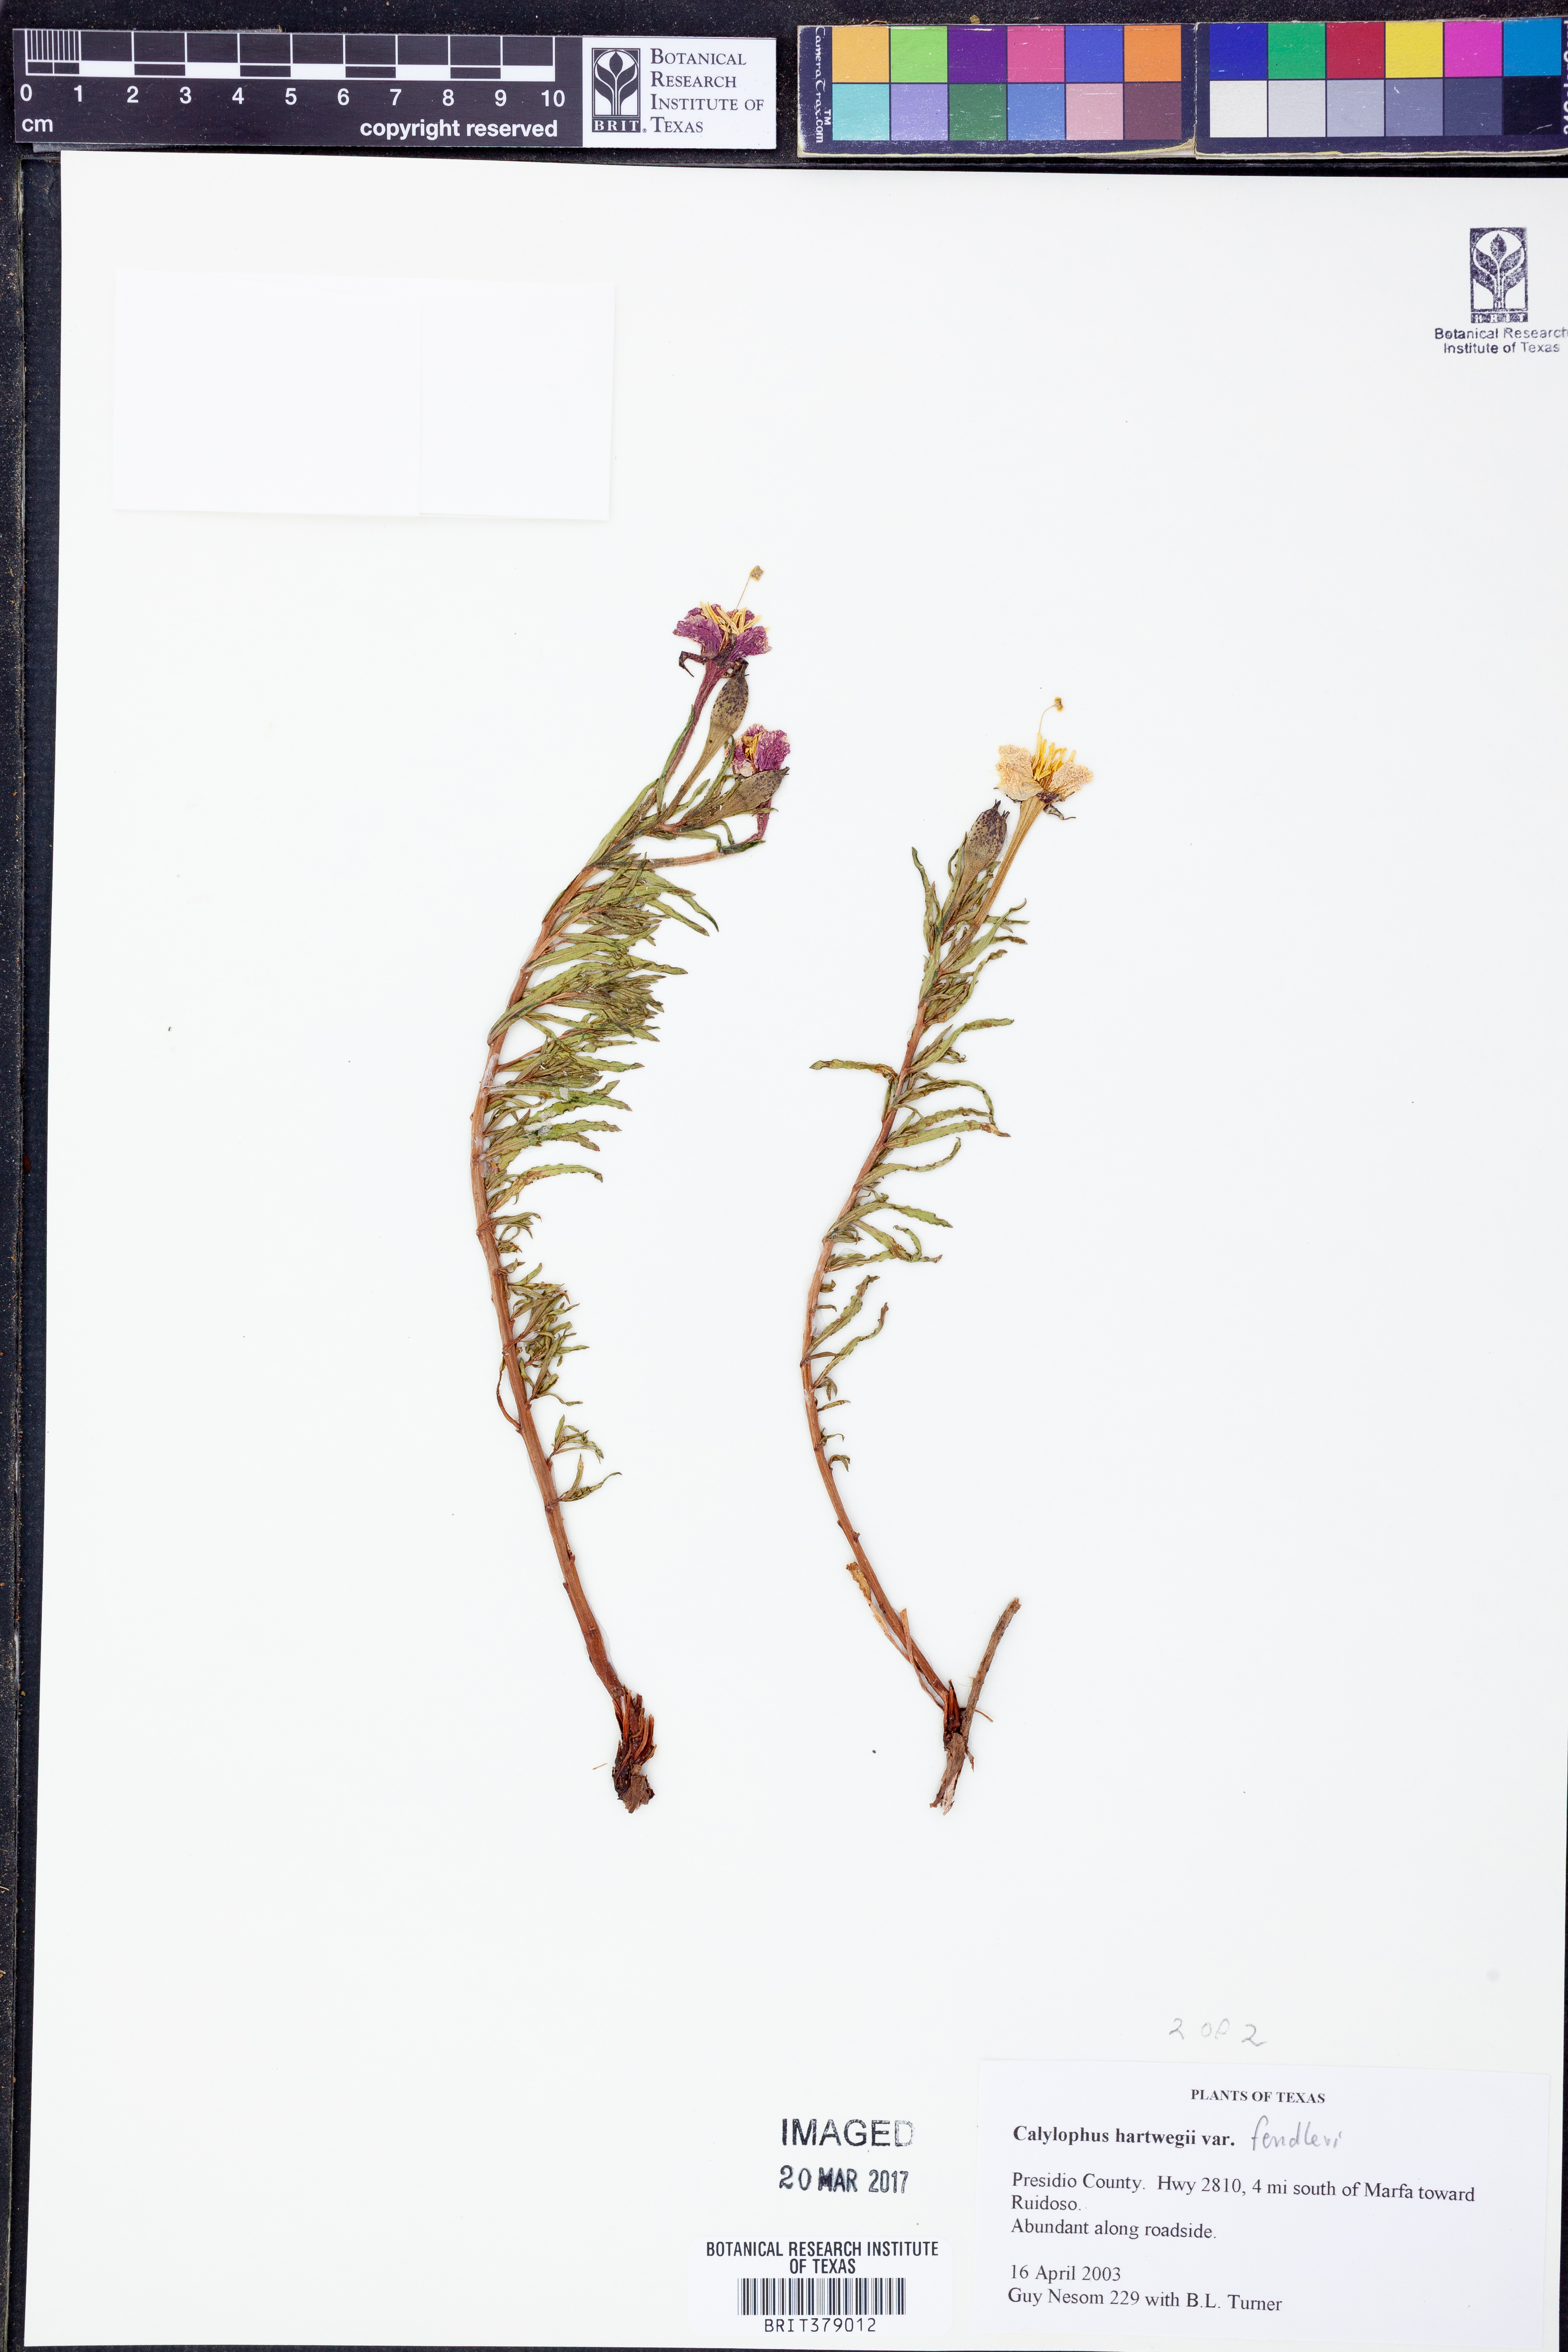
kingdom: Plantae
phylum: Tracheophyta
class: Magnoliopsida
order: Myrtales
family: Onagraceae
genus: Oenothera
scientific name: Oenothera hartwegii
